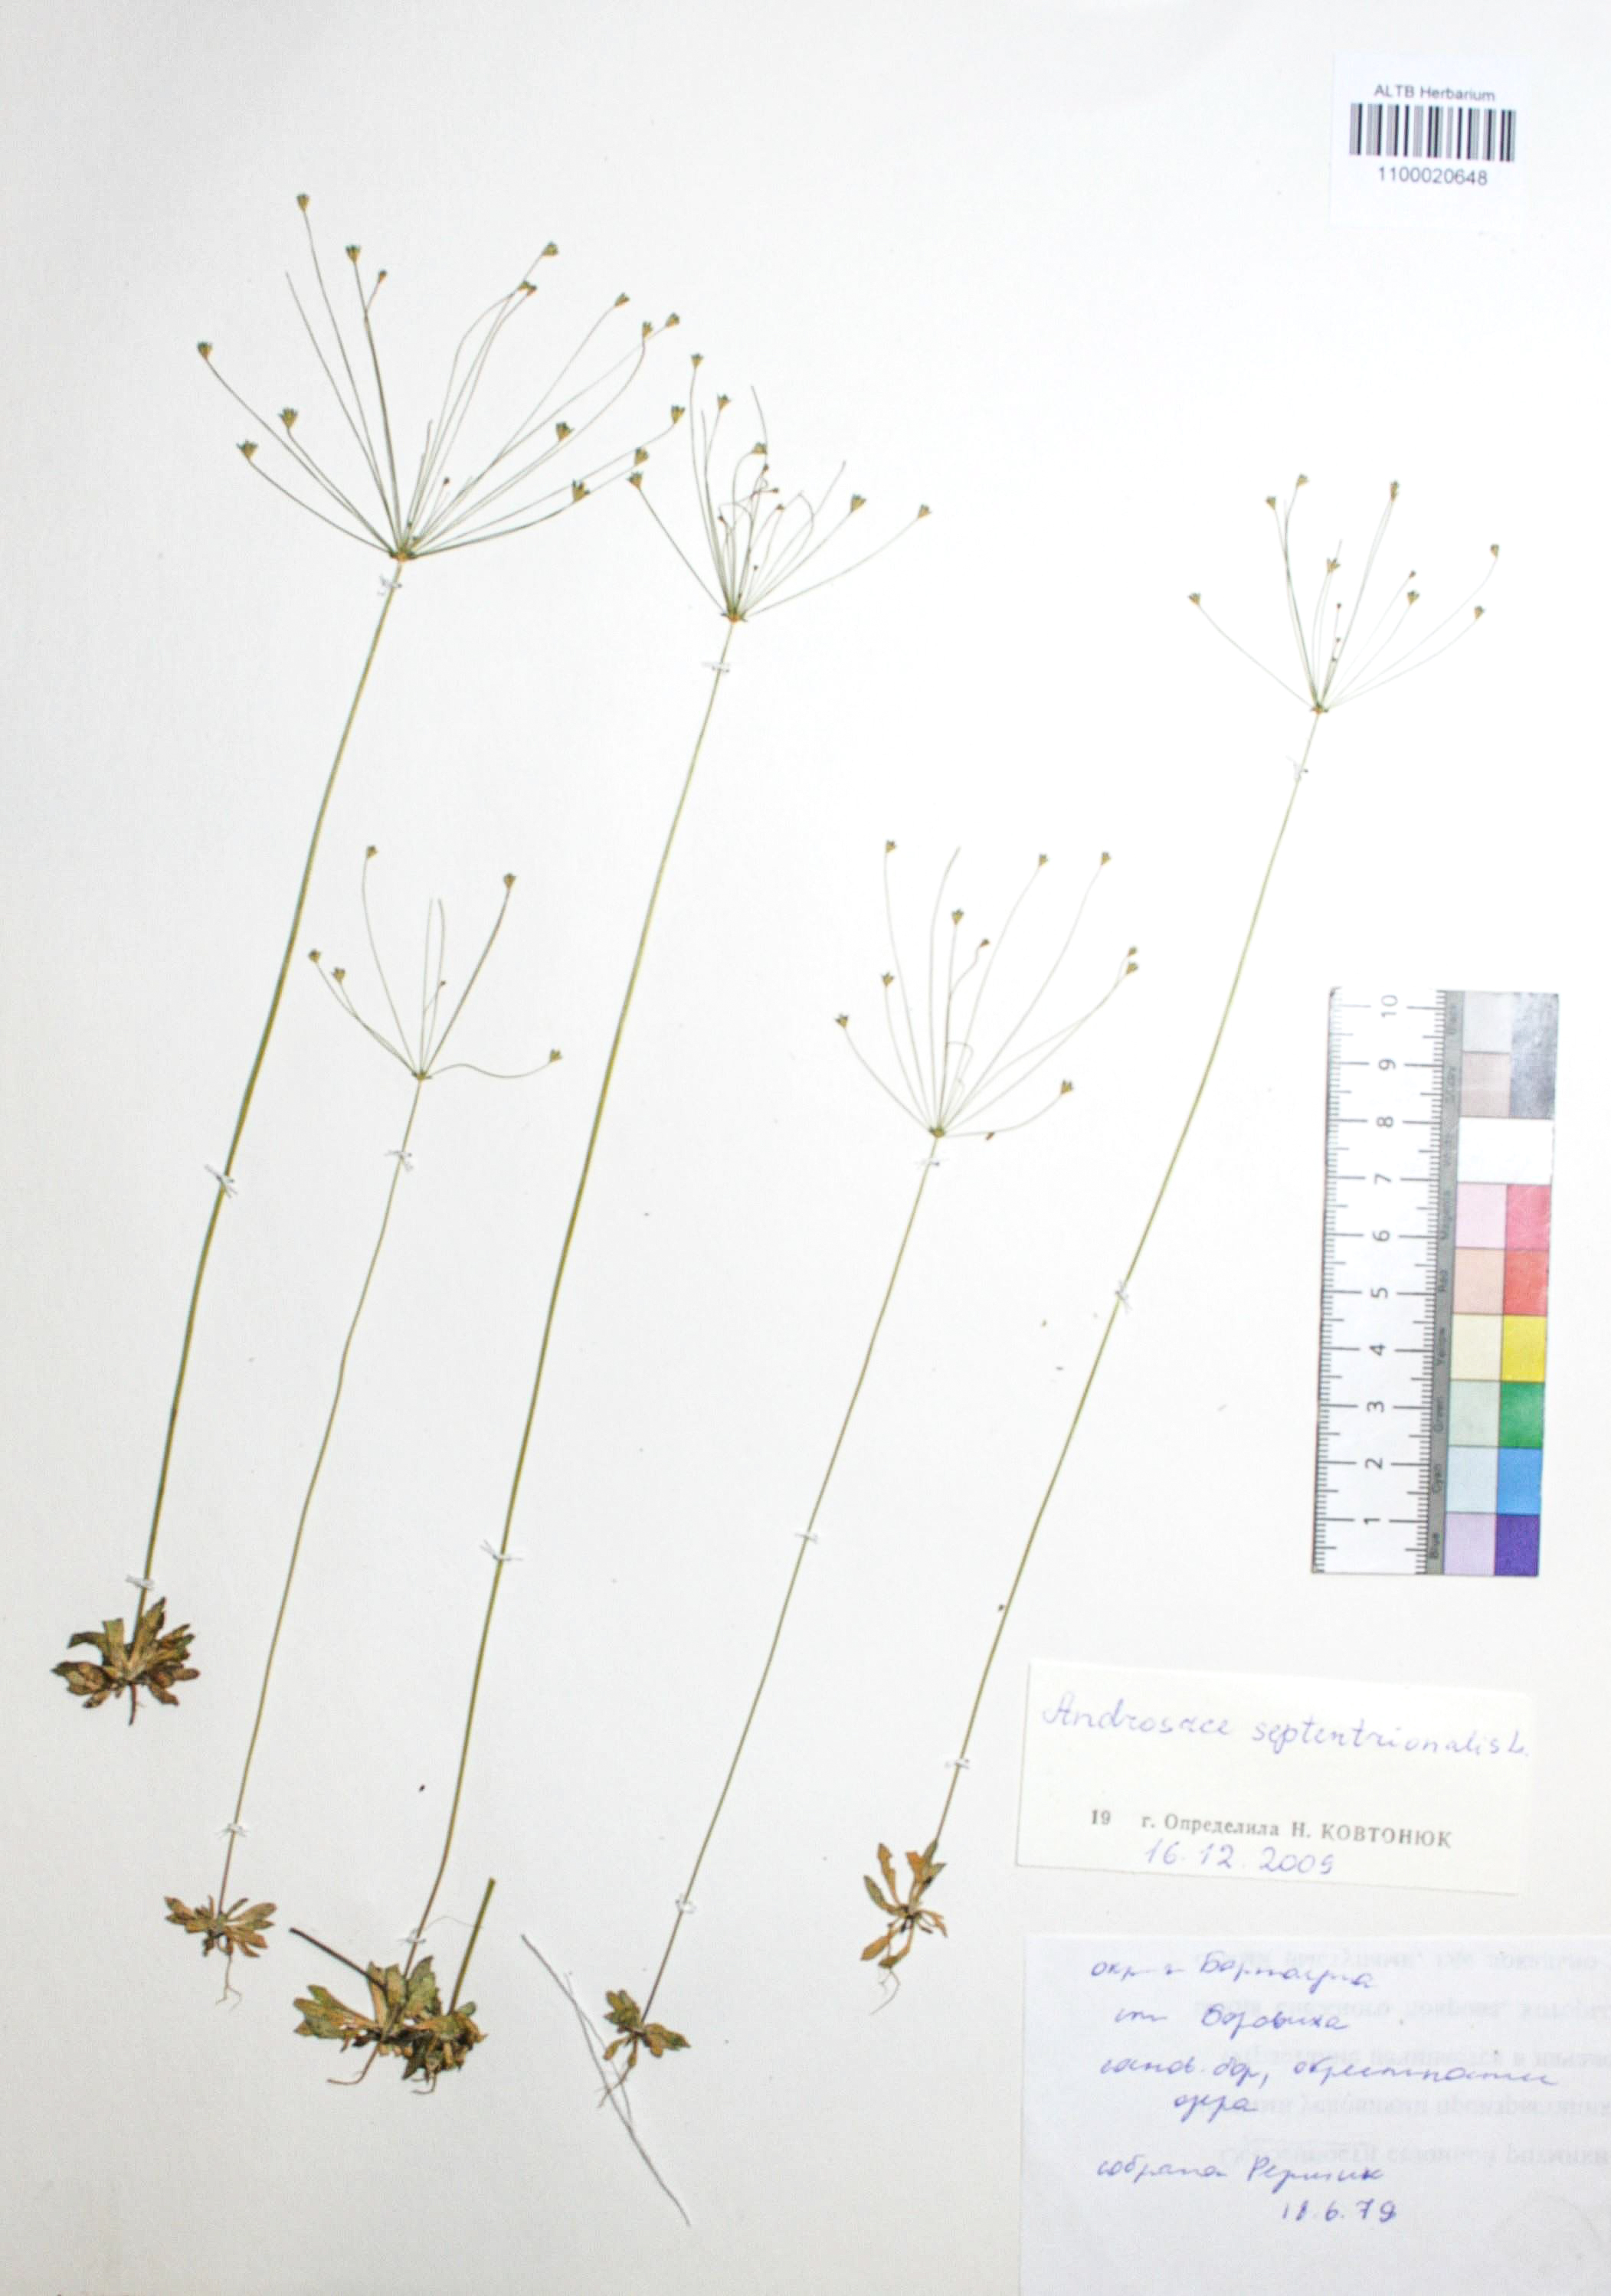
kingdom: Plantae
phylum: Tracheophyta
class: Magnoliopsida
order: Ericales
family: Primulaceae
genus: Androsace
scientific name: Androsace septentrionalis
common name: Hairy northern fairy-candelabra
